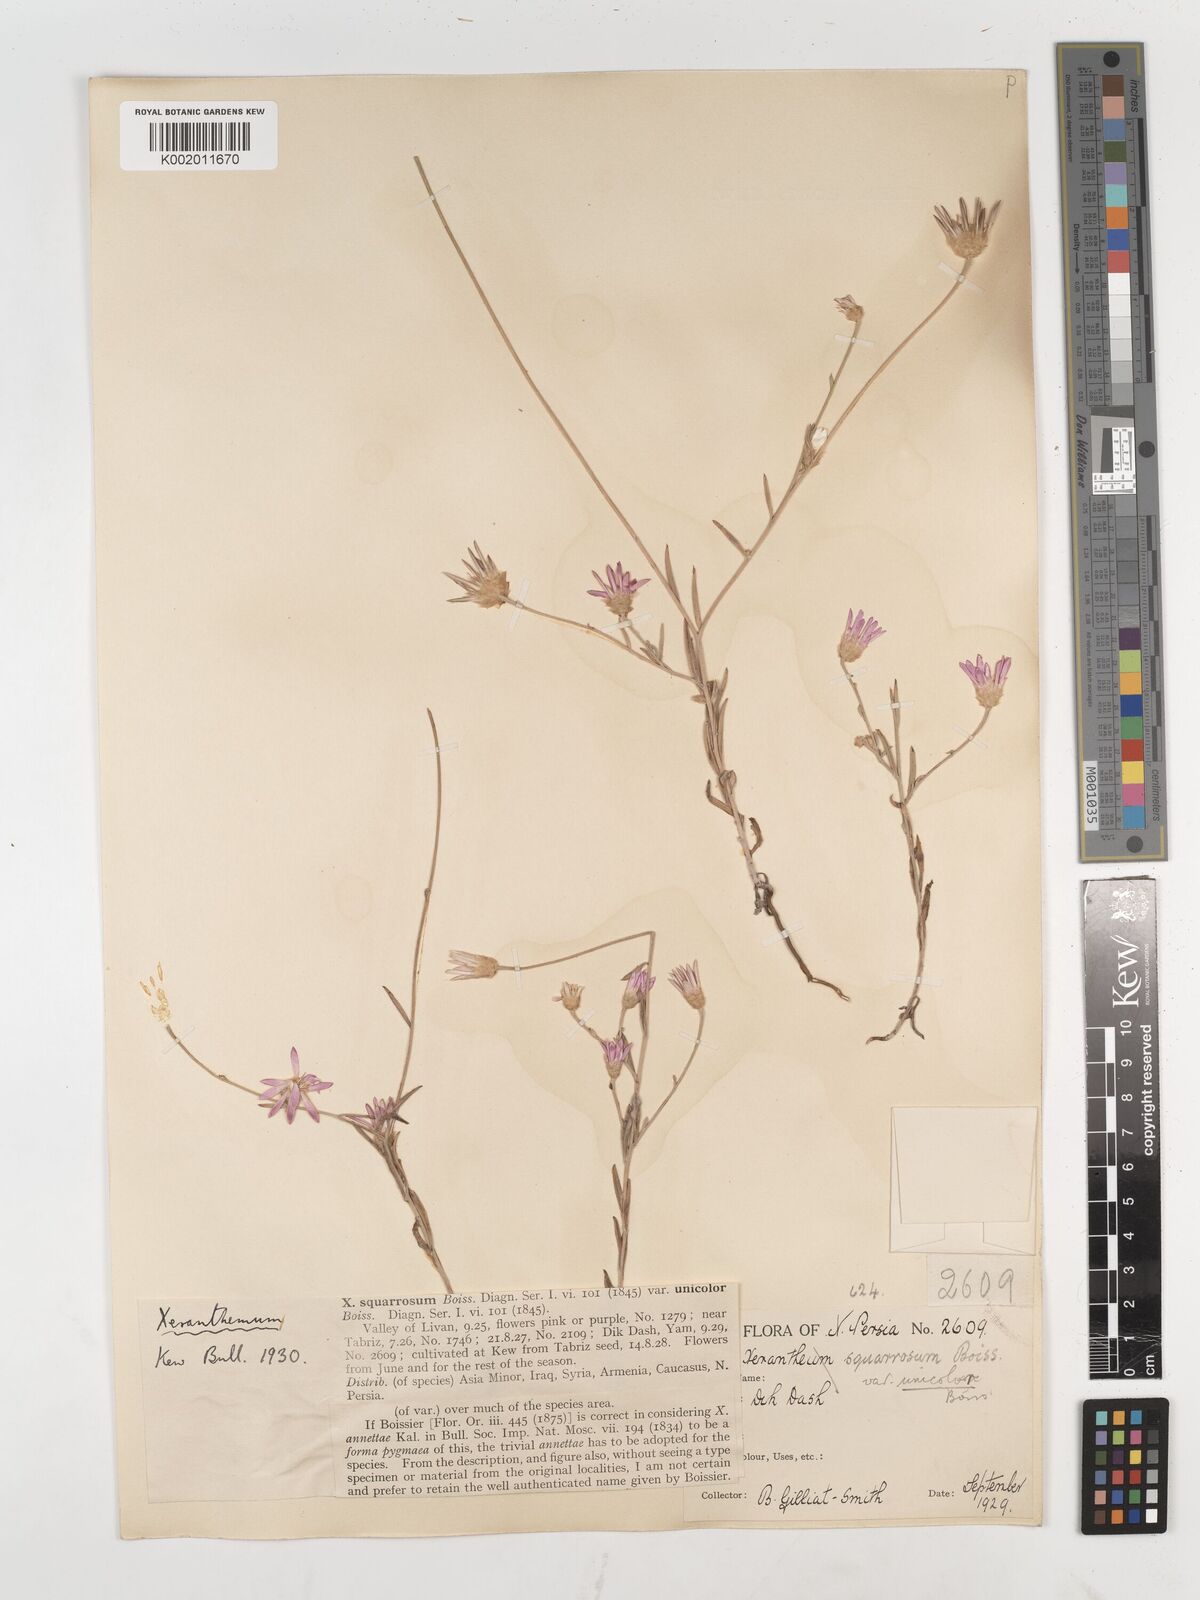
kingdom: Plantae
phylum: Tracheophyta
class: Magnoliopsida
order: Asterales
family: Asteraceae
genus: Xeranthemum
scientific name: Xeranthemum squarrosum
